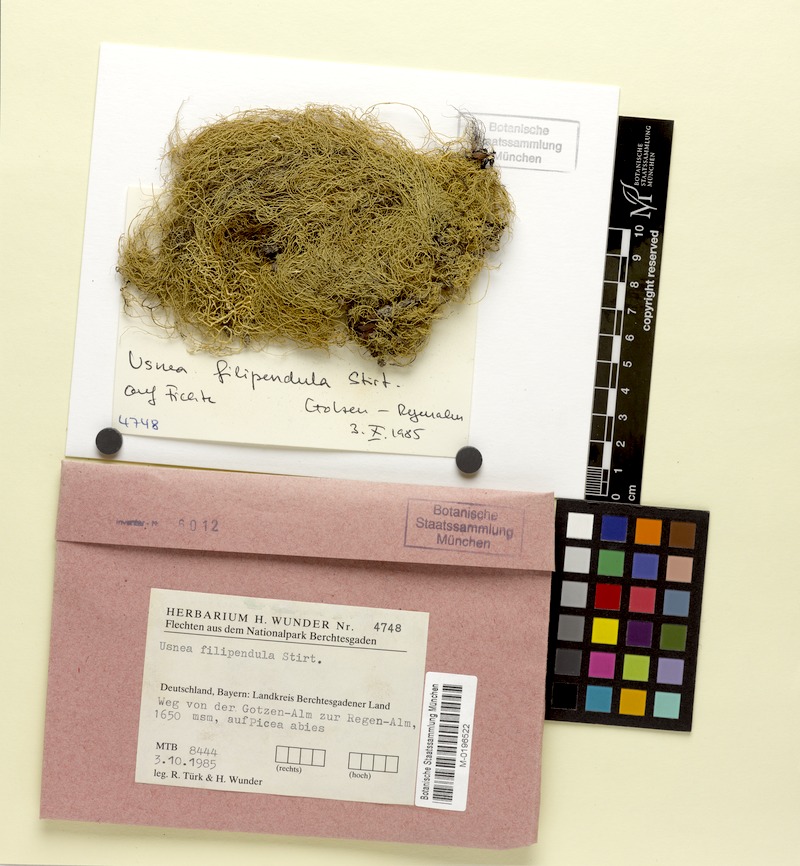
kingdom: Fungi
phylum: Ascomycota
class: Lecanoromycetes
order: Lecanorales
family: Parmeliaceae
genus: Usnea
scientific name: Usnea filipendula
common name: Fishbone beard lichen
